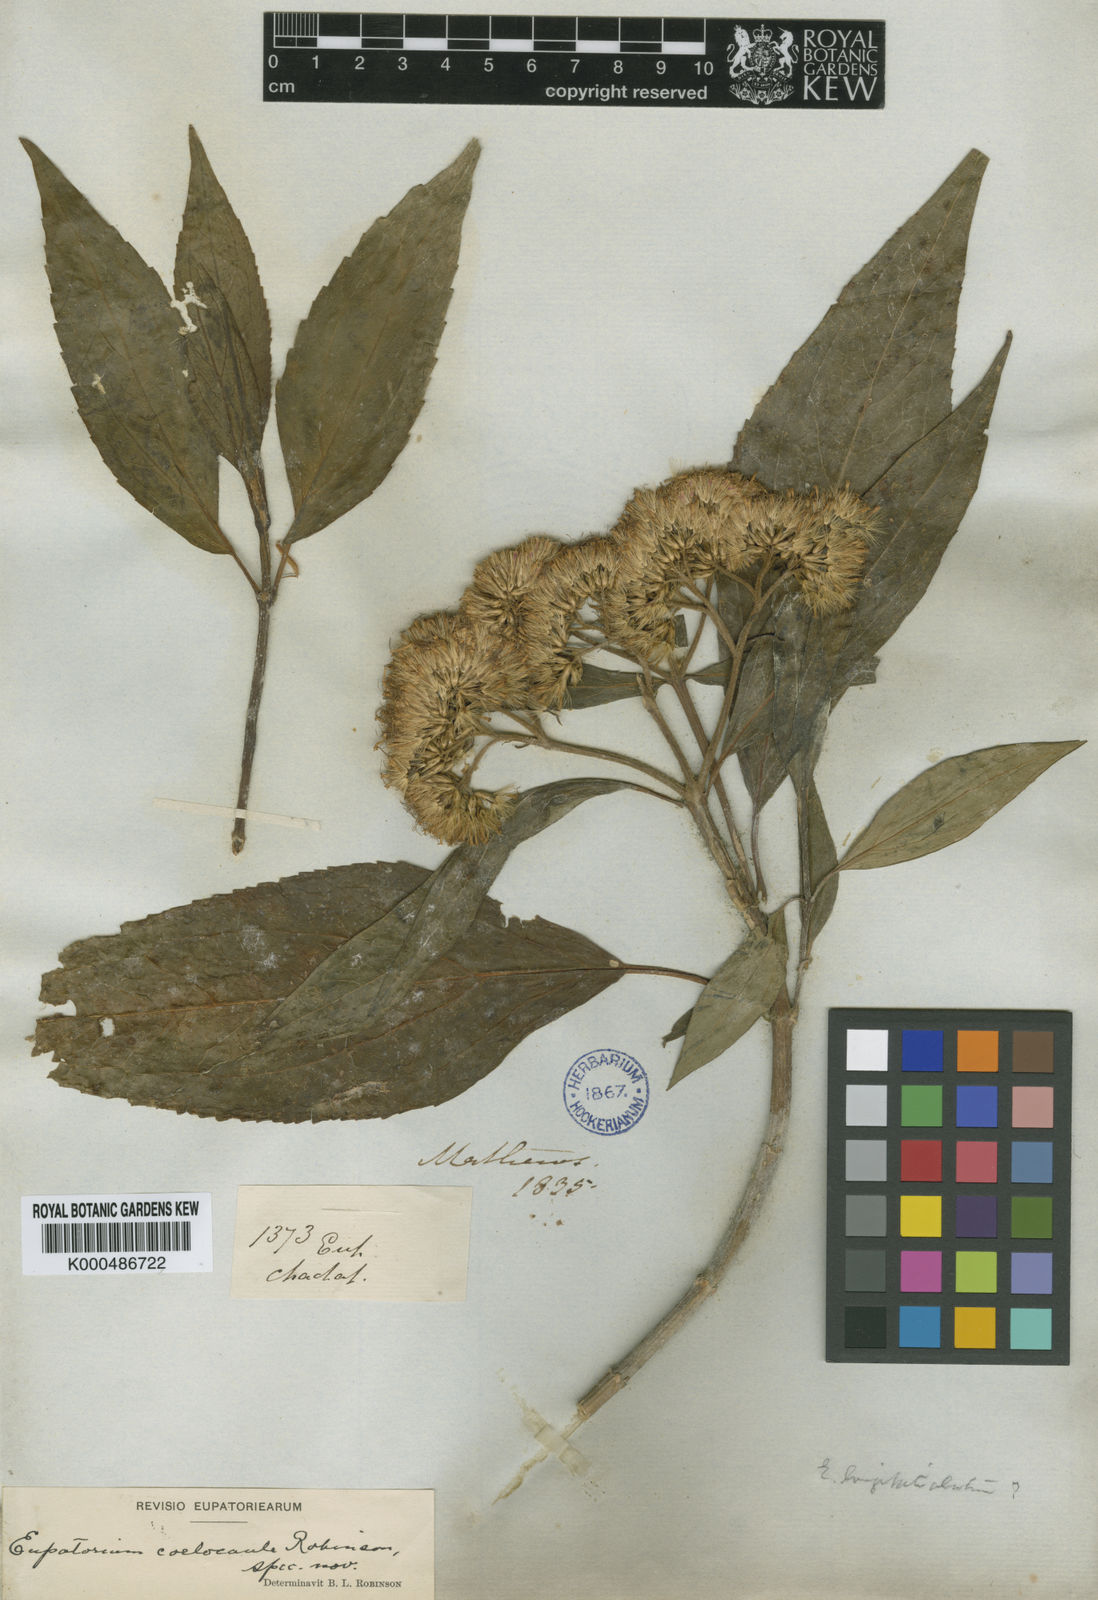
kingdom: Plantae
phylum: Tracheophyta
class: Magnoliopsida
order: Asterales
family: Asteraceae
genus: Grosvenoria
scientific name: Grosvenoria coelocaulis
